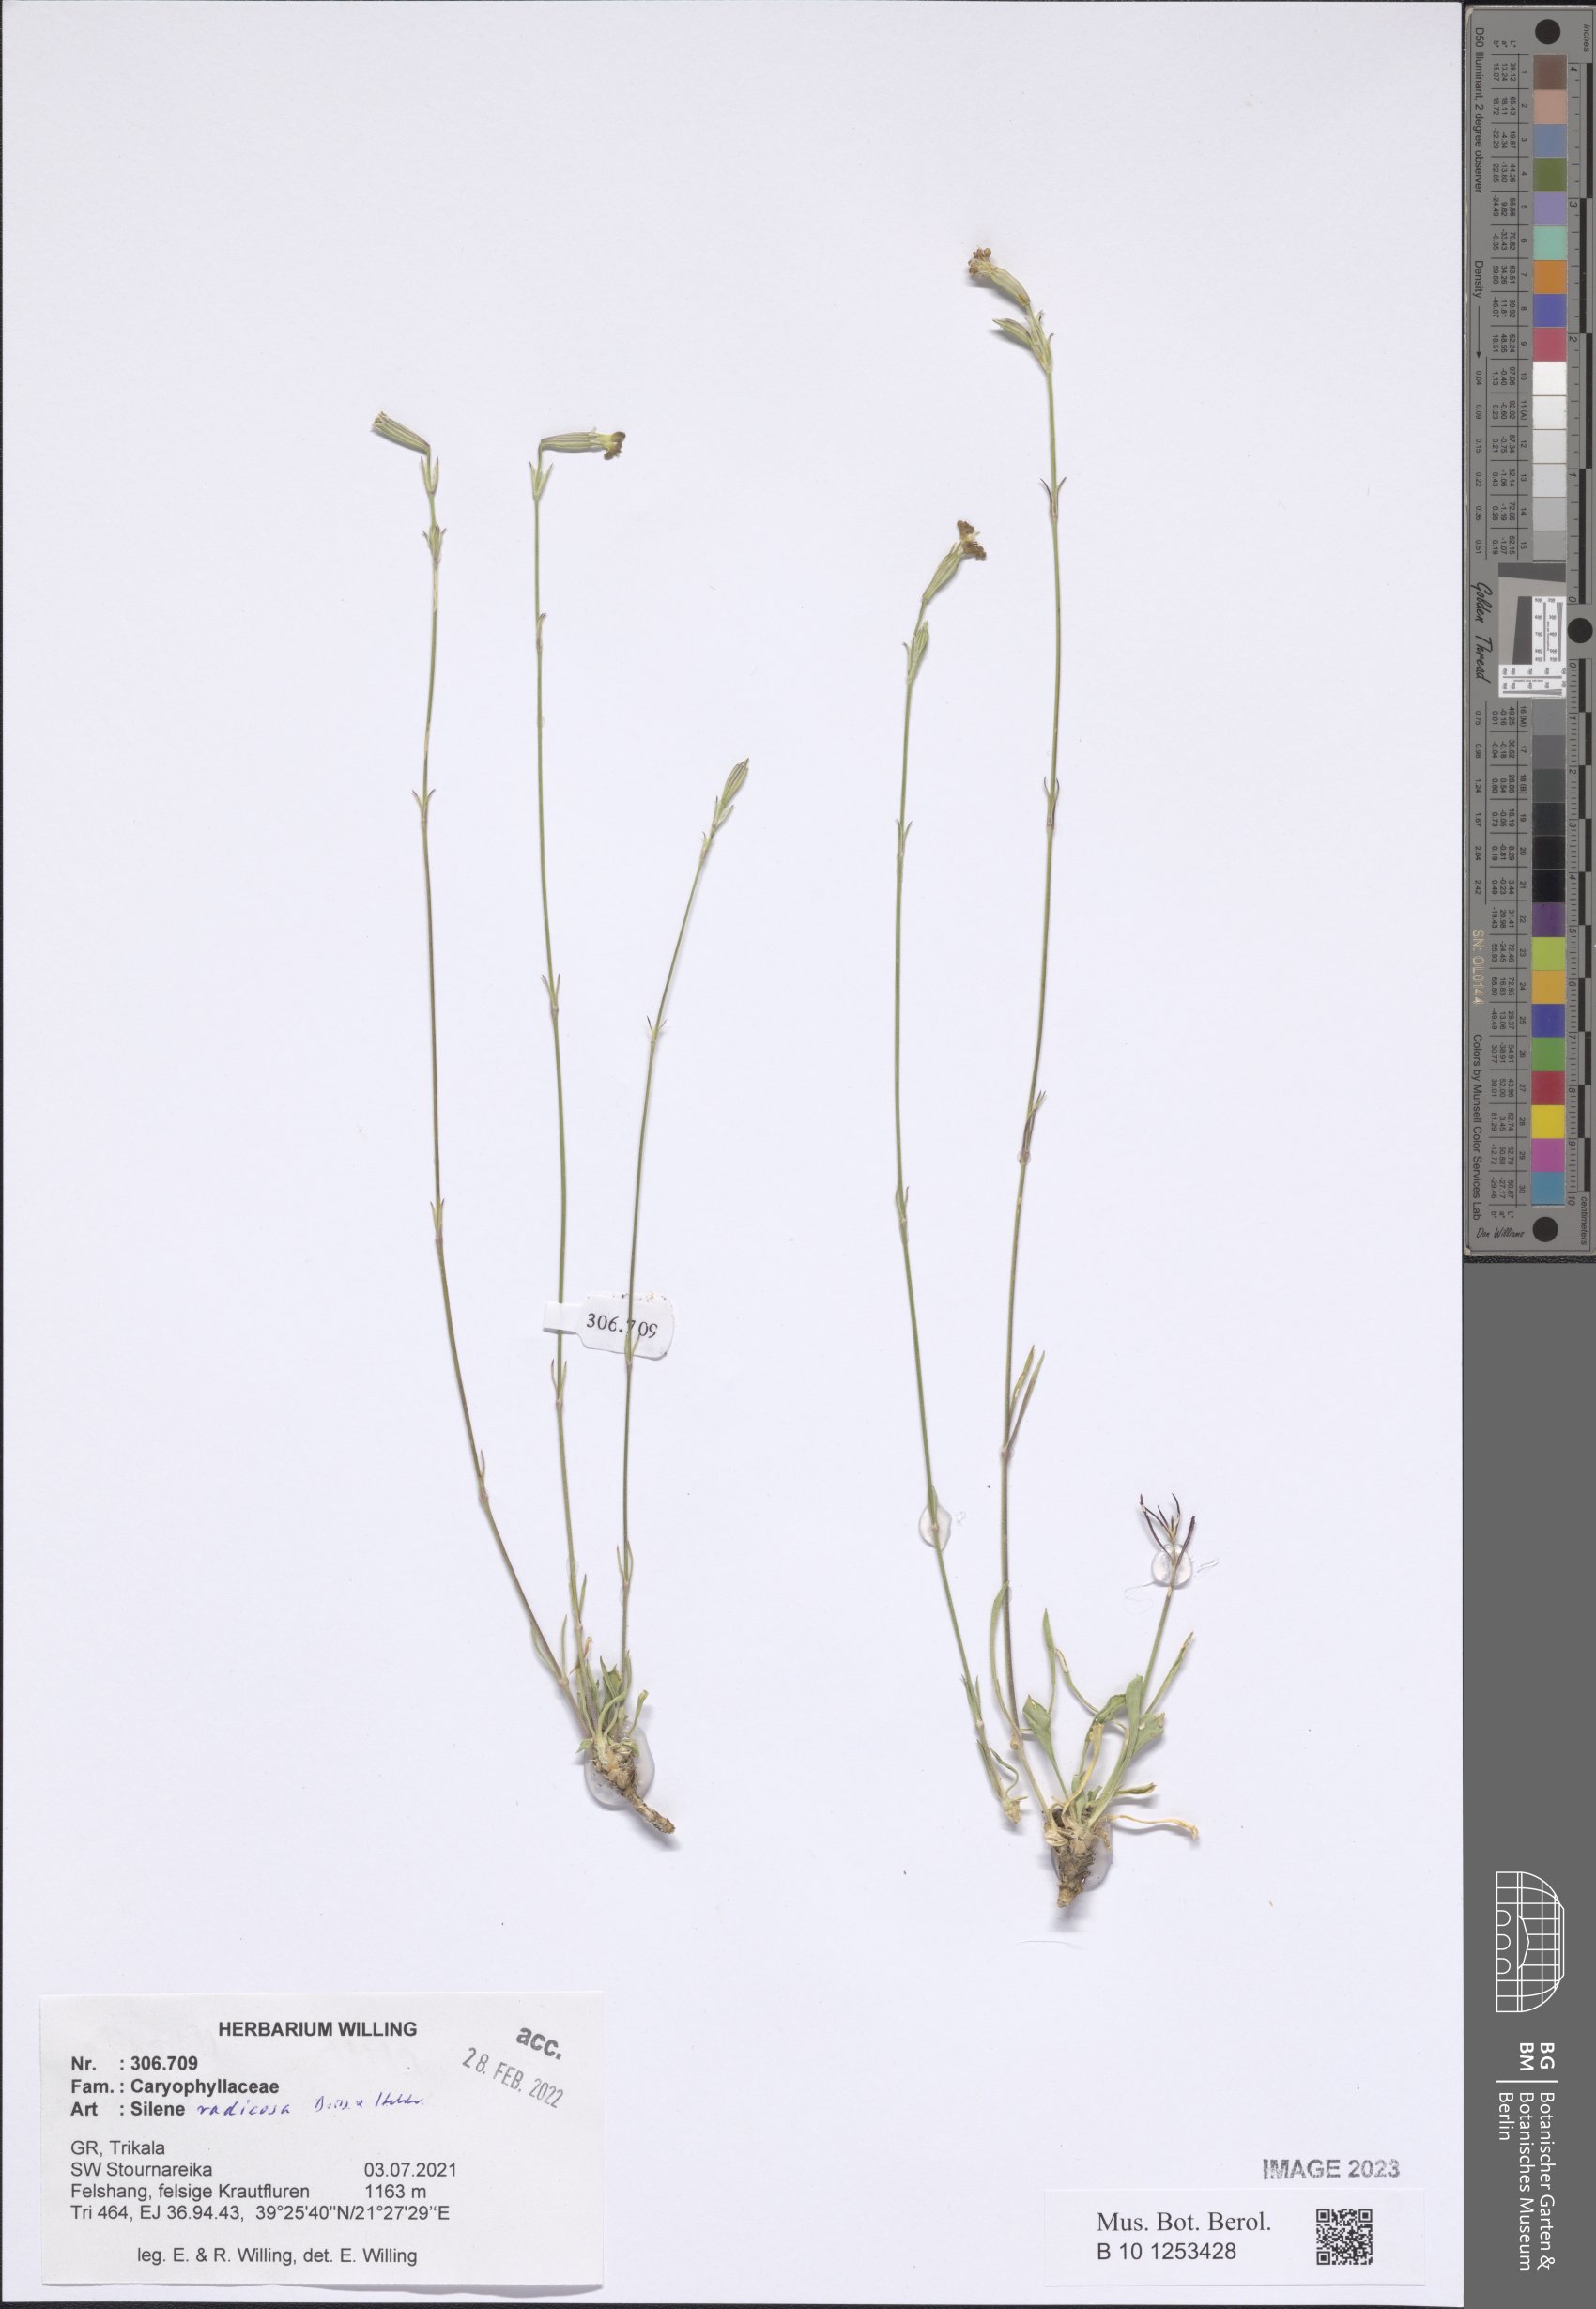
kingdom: Plantae
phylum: Tracheophyta
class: Magnoliopsida
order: Caryophyllales
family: Caryophyllaceae
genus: Silene
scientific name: Silene radicosa
